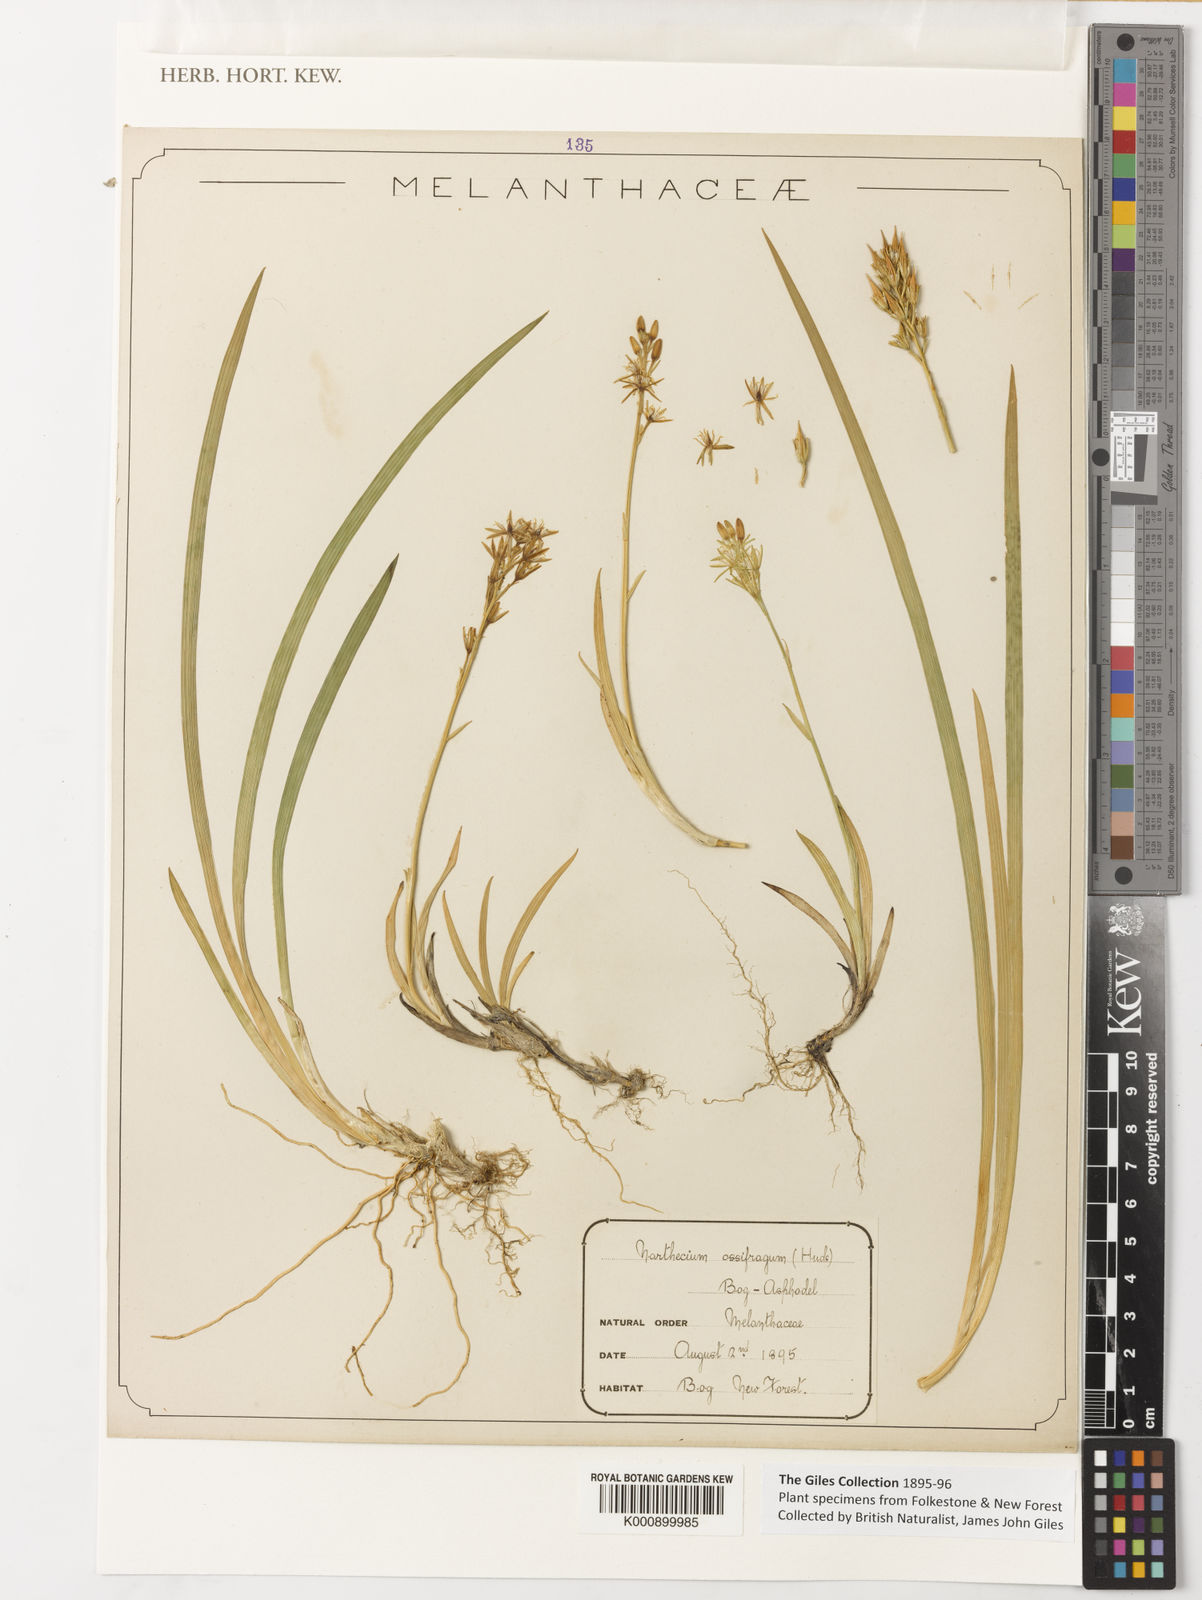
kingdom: Plantae
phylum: Tracheophyta
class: Liliopsida
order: Dioscoreales
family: Nartheciaceae
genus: Narthecium
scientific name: Narthecium ossifragum
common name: Bog asphodel
